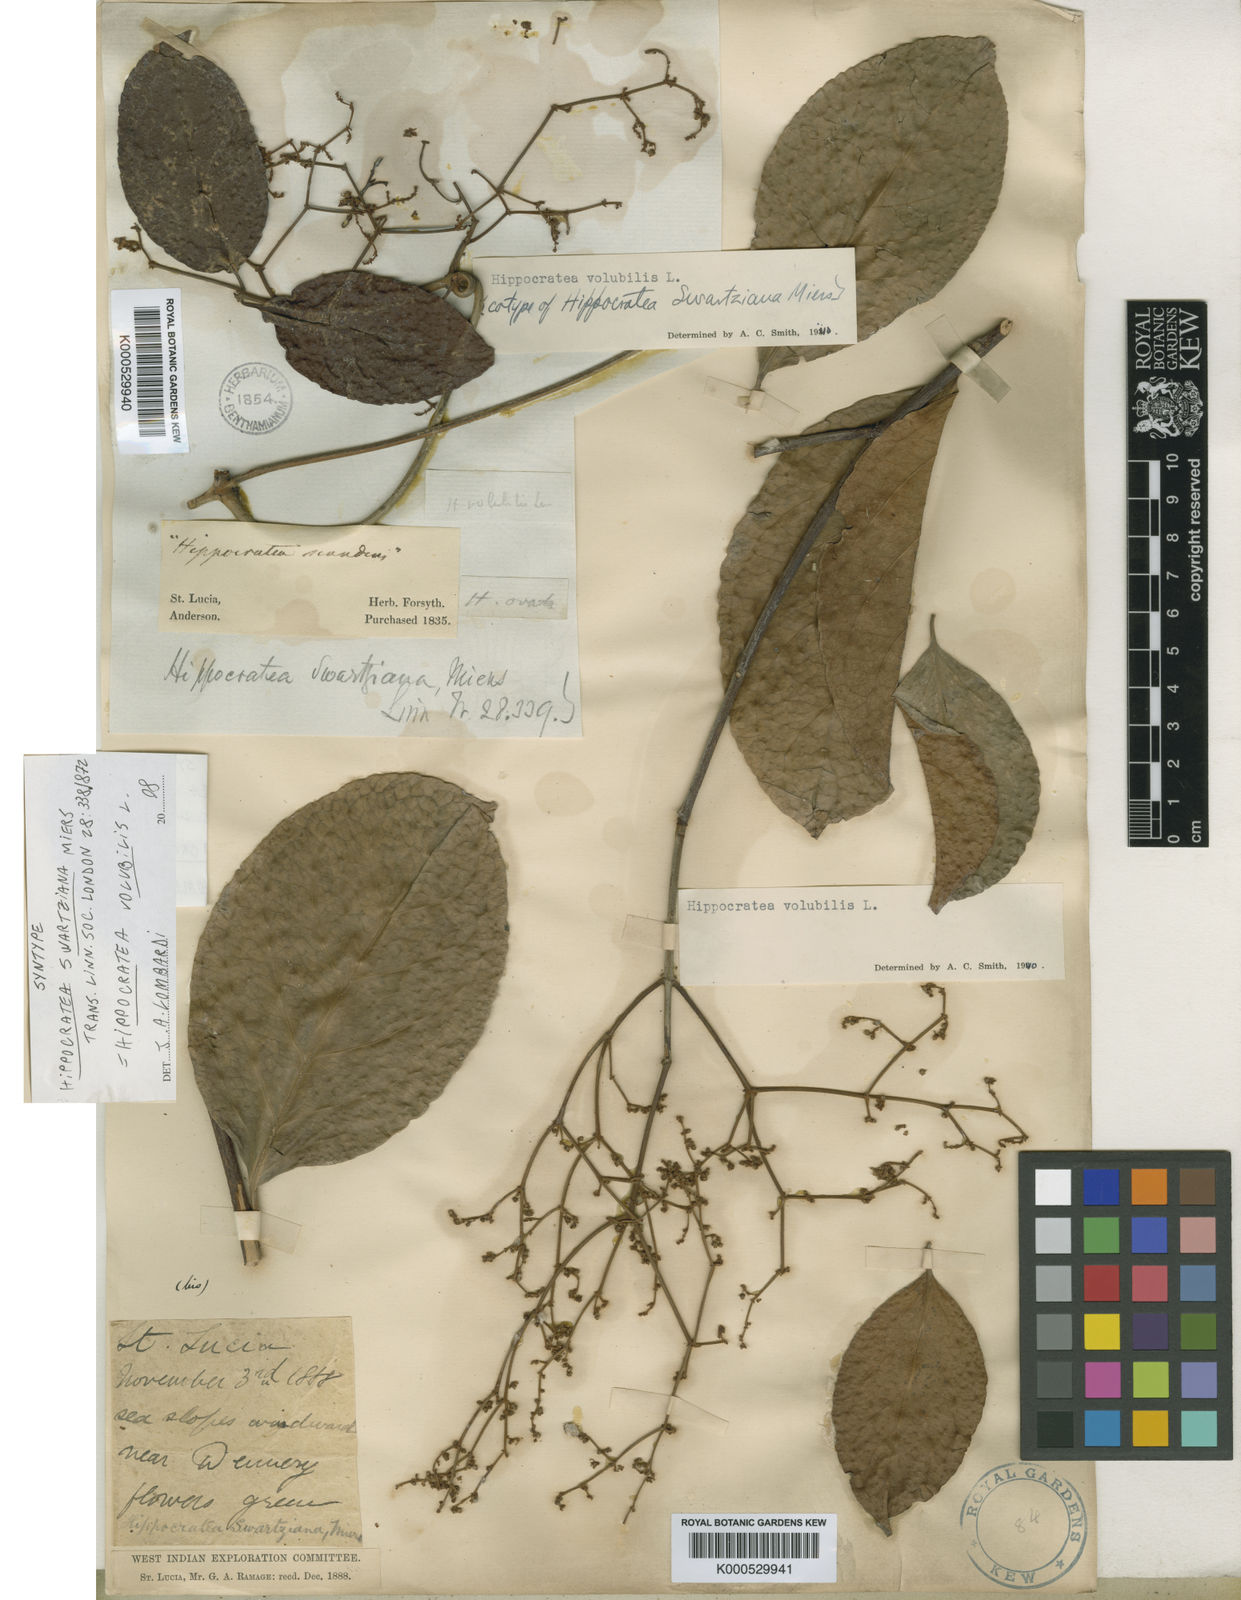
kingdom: Plantae
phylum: Tracheophyta
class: Magnoliopsida
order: Celastrales
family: Celastraceae
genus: Hippocratea
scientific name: Hippocratea volubilis
